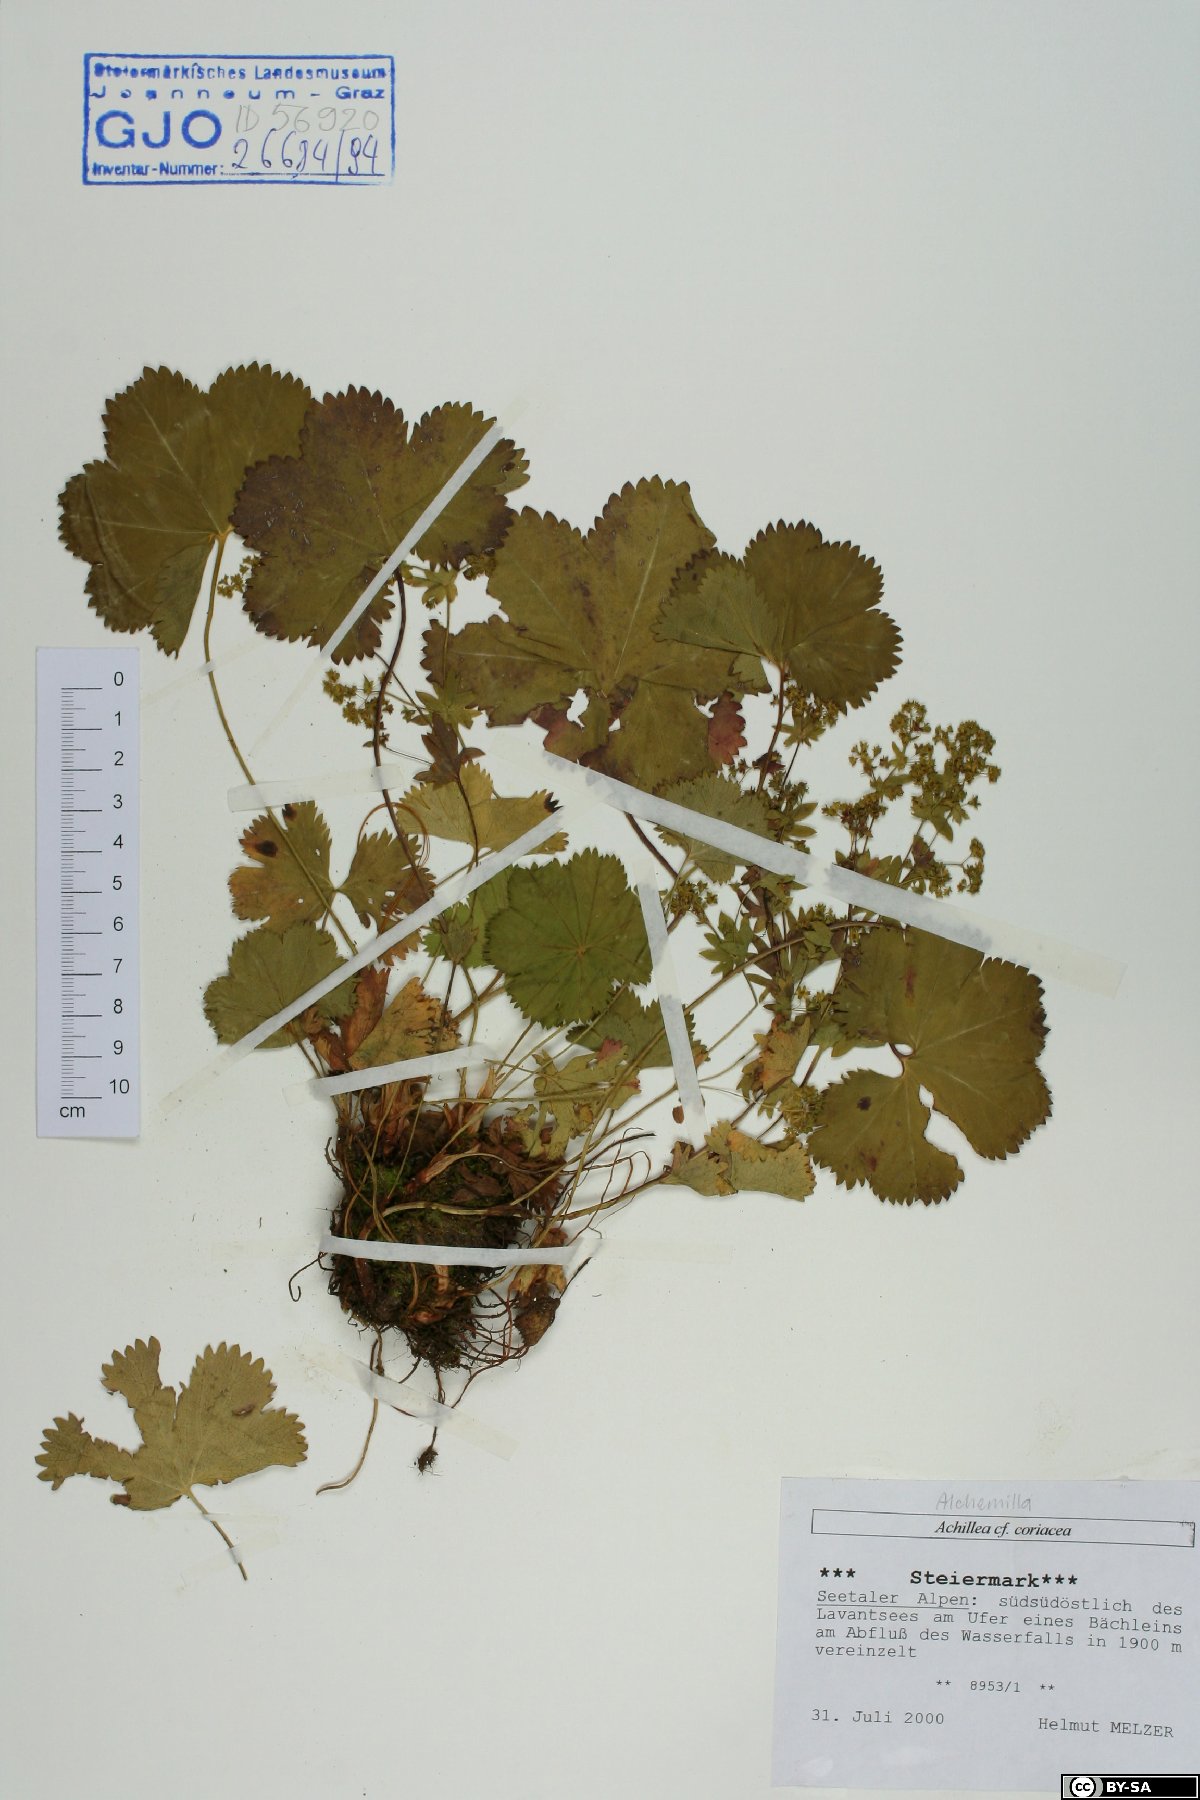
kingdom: Plantae
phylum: Tracheophyta
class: Magnoliopsida
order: Rosales
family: Rosaceae
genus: Alchemilla
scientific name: Alchemilla coriacea
